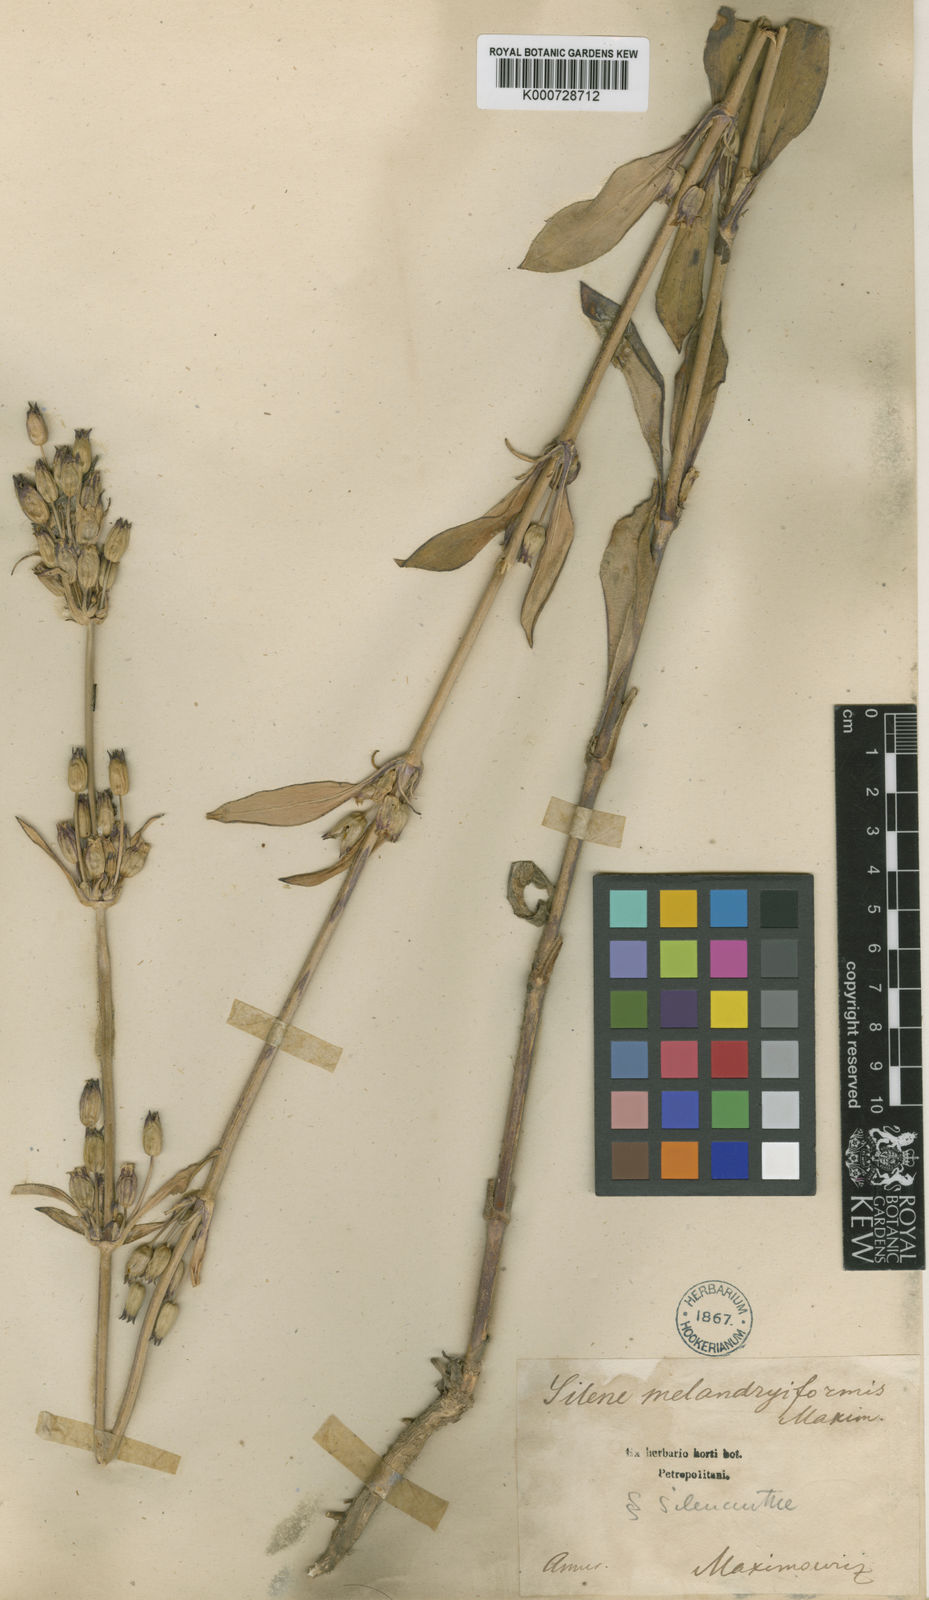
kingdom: Plantae
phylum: Tracheophyta
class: Magnoliopsida
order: Caryophyllales
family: Caryophyllaceae
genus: Silene
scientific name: Silene
